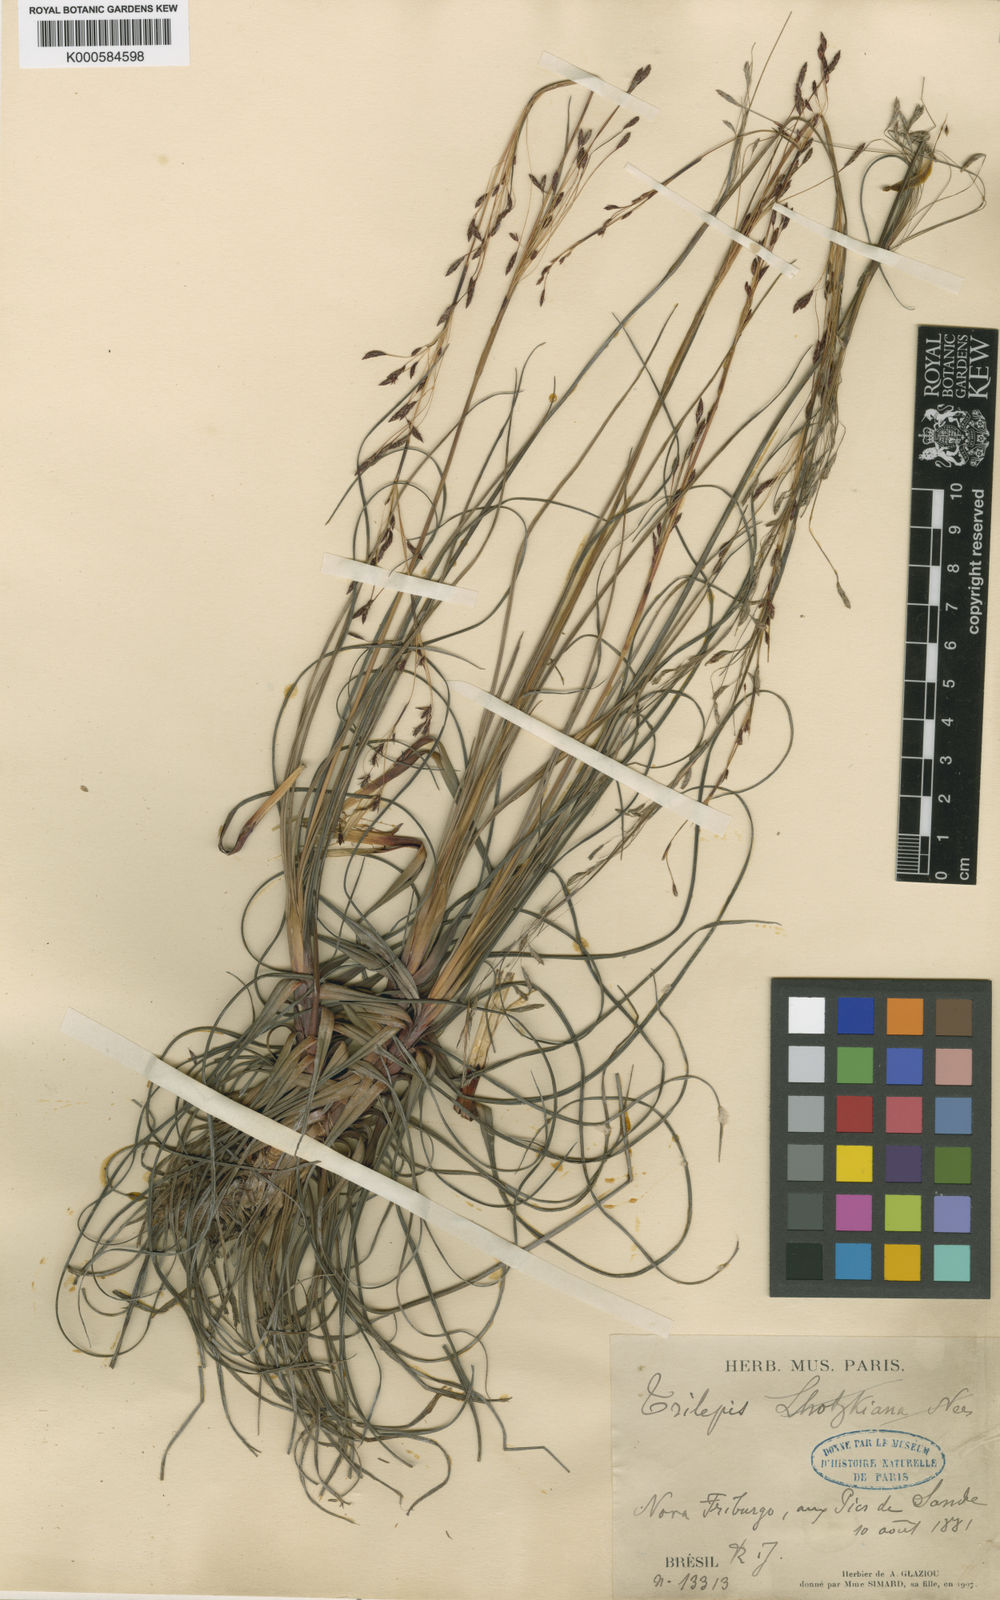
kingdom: Plantae
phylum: Tracheophyta
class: Liliopsida
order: Poales
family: Cyperaceae
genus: Trilepis
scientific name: Trilepis lhotzkiana
